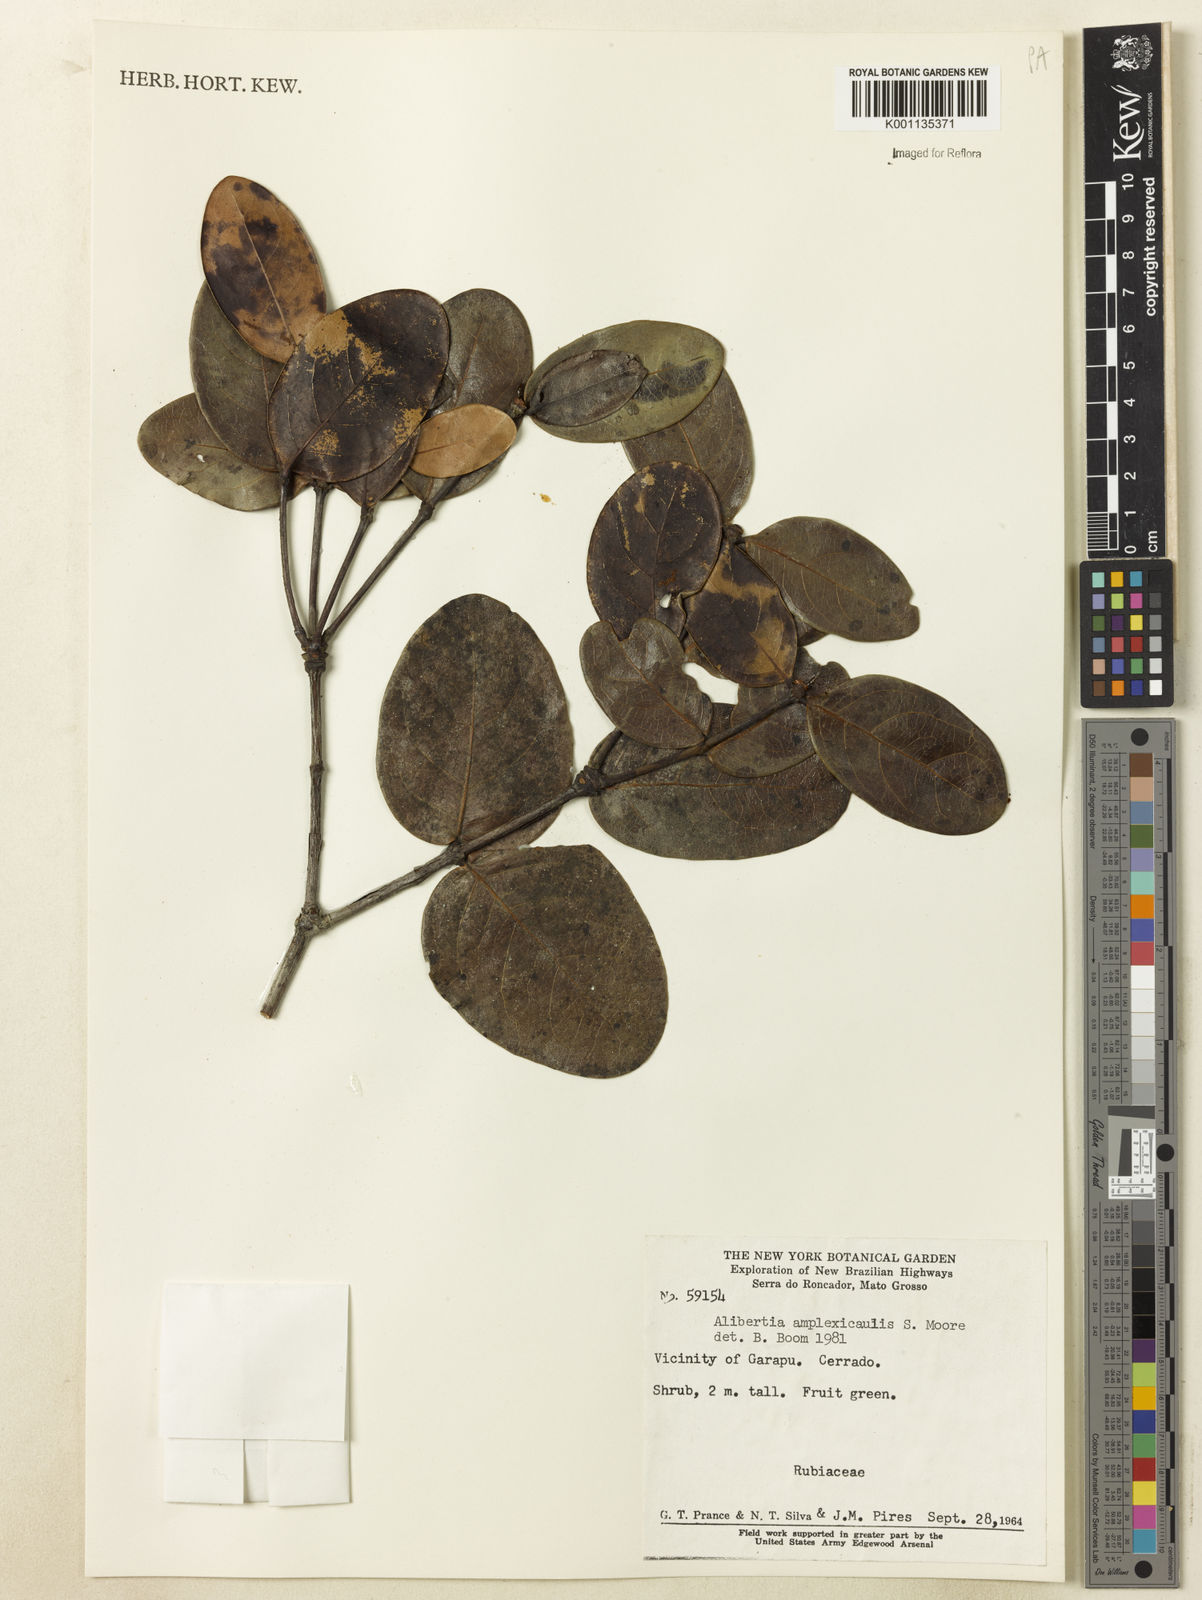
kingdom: Plantae
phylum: Tracheophyta
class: Magnoliopsida
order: Gentianales
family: Rubiaceae
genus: Cordiera
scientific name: Cordiera humilis
